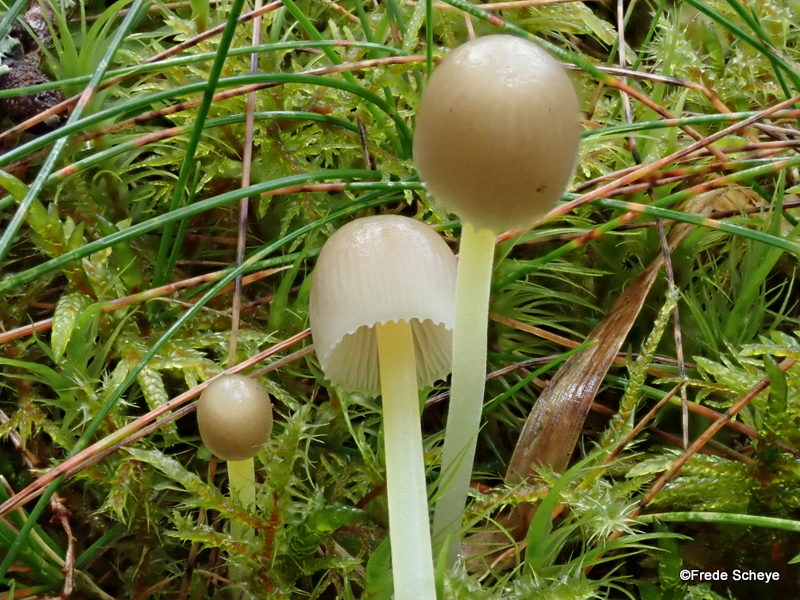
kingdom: Fungi
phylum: Basidiomycota
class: Agaricomycetes
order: Agaricales
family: Mycenaceae
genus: Mycena
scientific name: Mycena epipterygia
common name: gulstokket huesvamp
